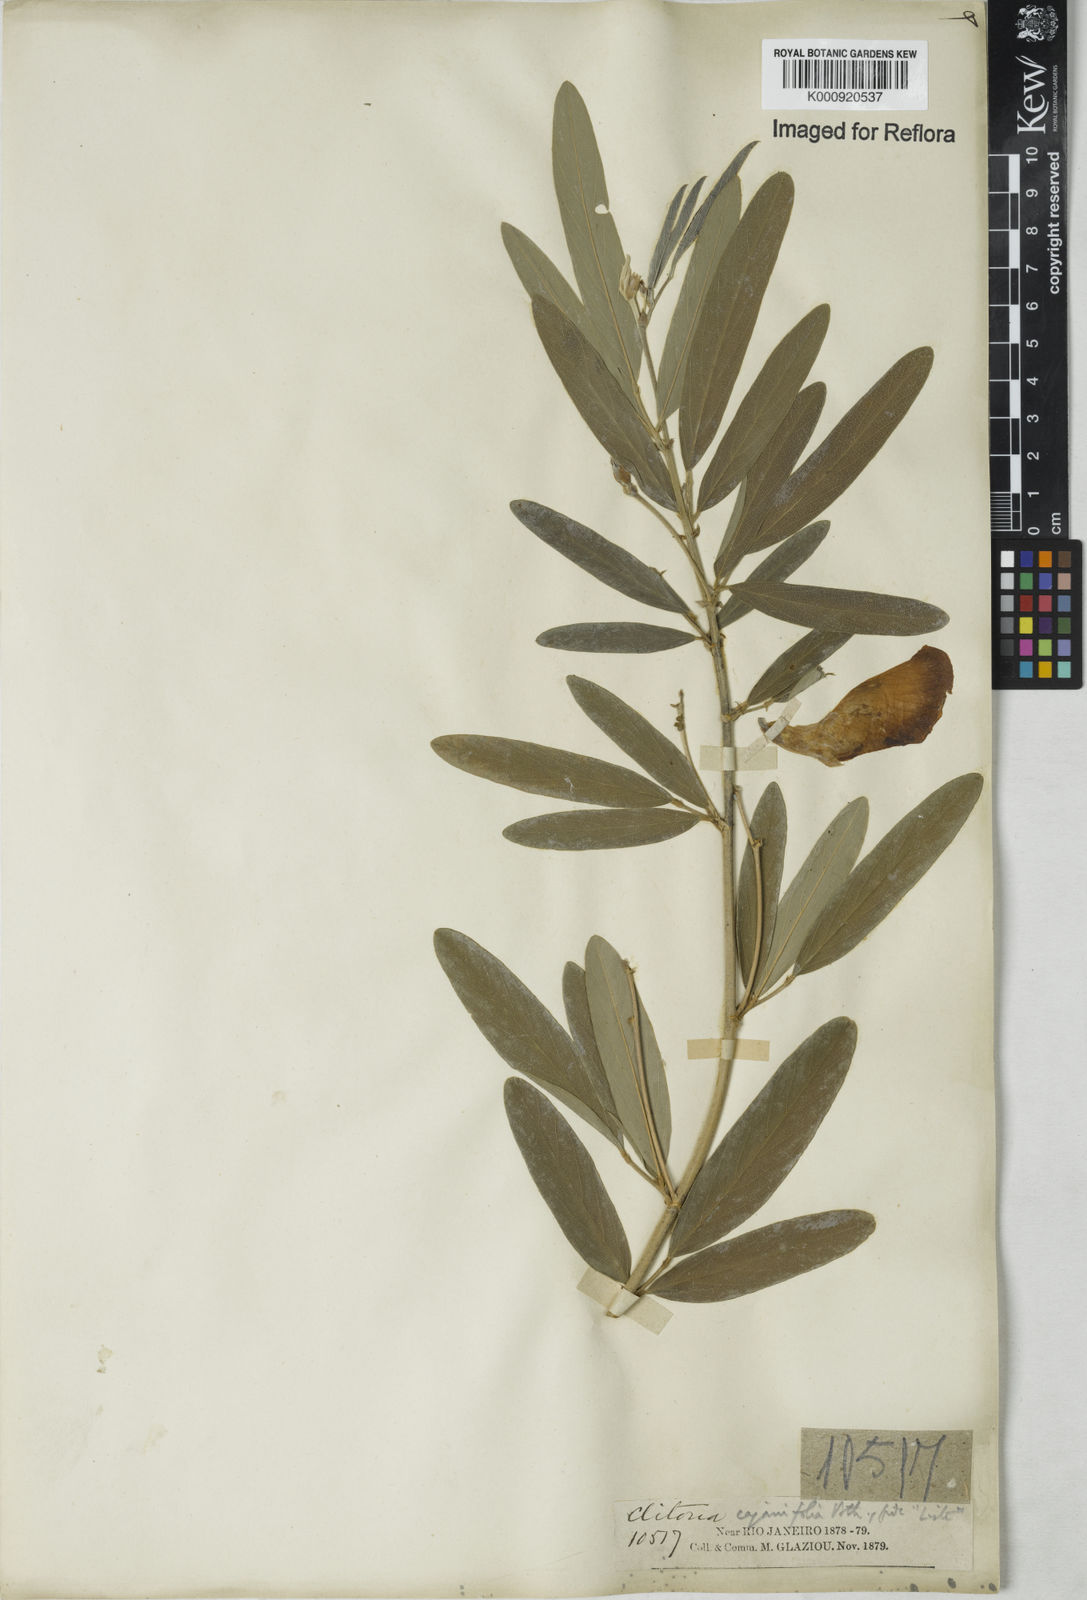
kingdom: Plantae
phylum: Tracheophyta
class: Magnoliopsida
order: Fabales
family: Fabaceae
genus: Clitoria
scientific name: Clitoria laurifolia
